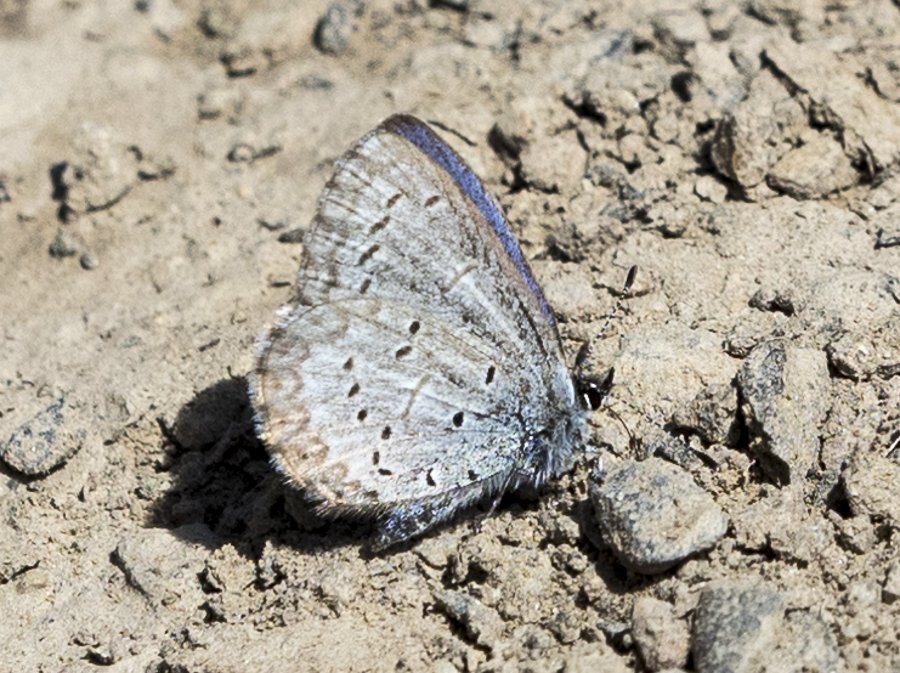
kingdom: Animalia
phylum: Arthropoda
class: Insecta
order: Lepidoptera
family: Lycaenidae
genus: Celastrina
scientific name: Celastrina ladon
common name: Echo Azure
